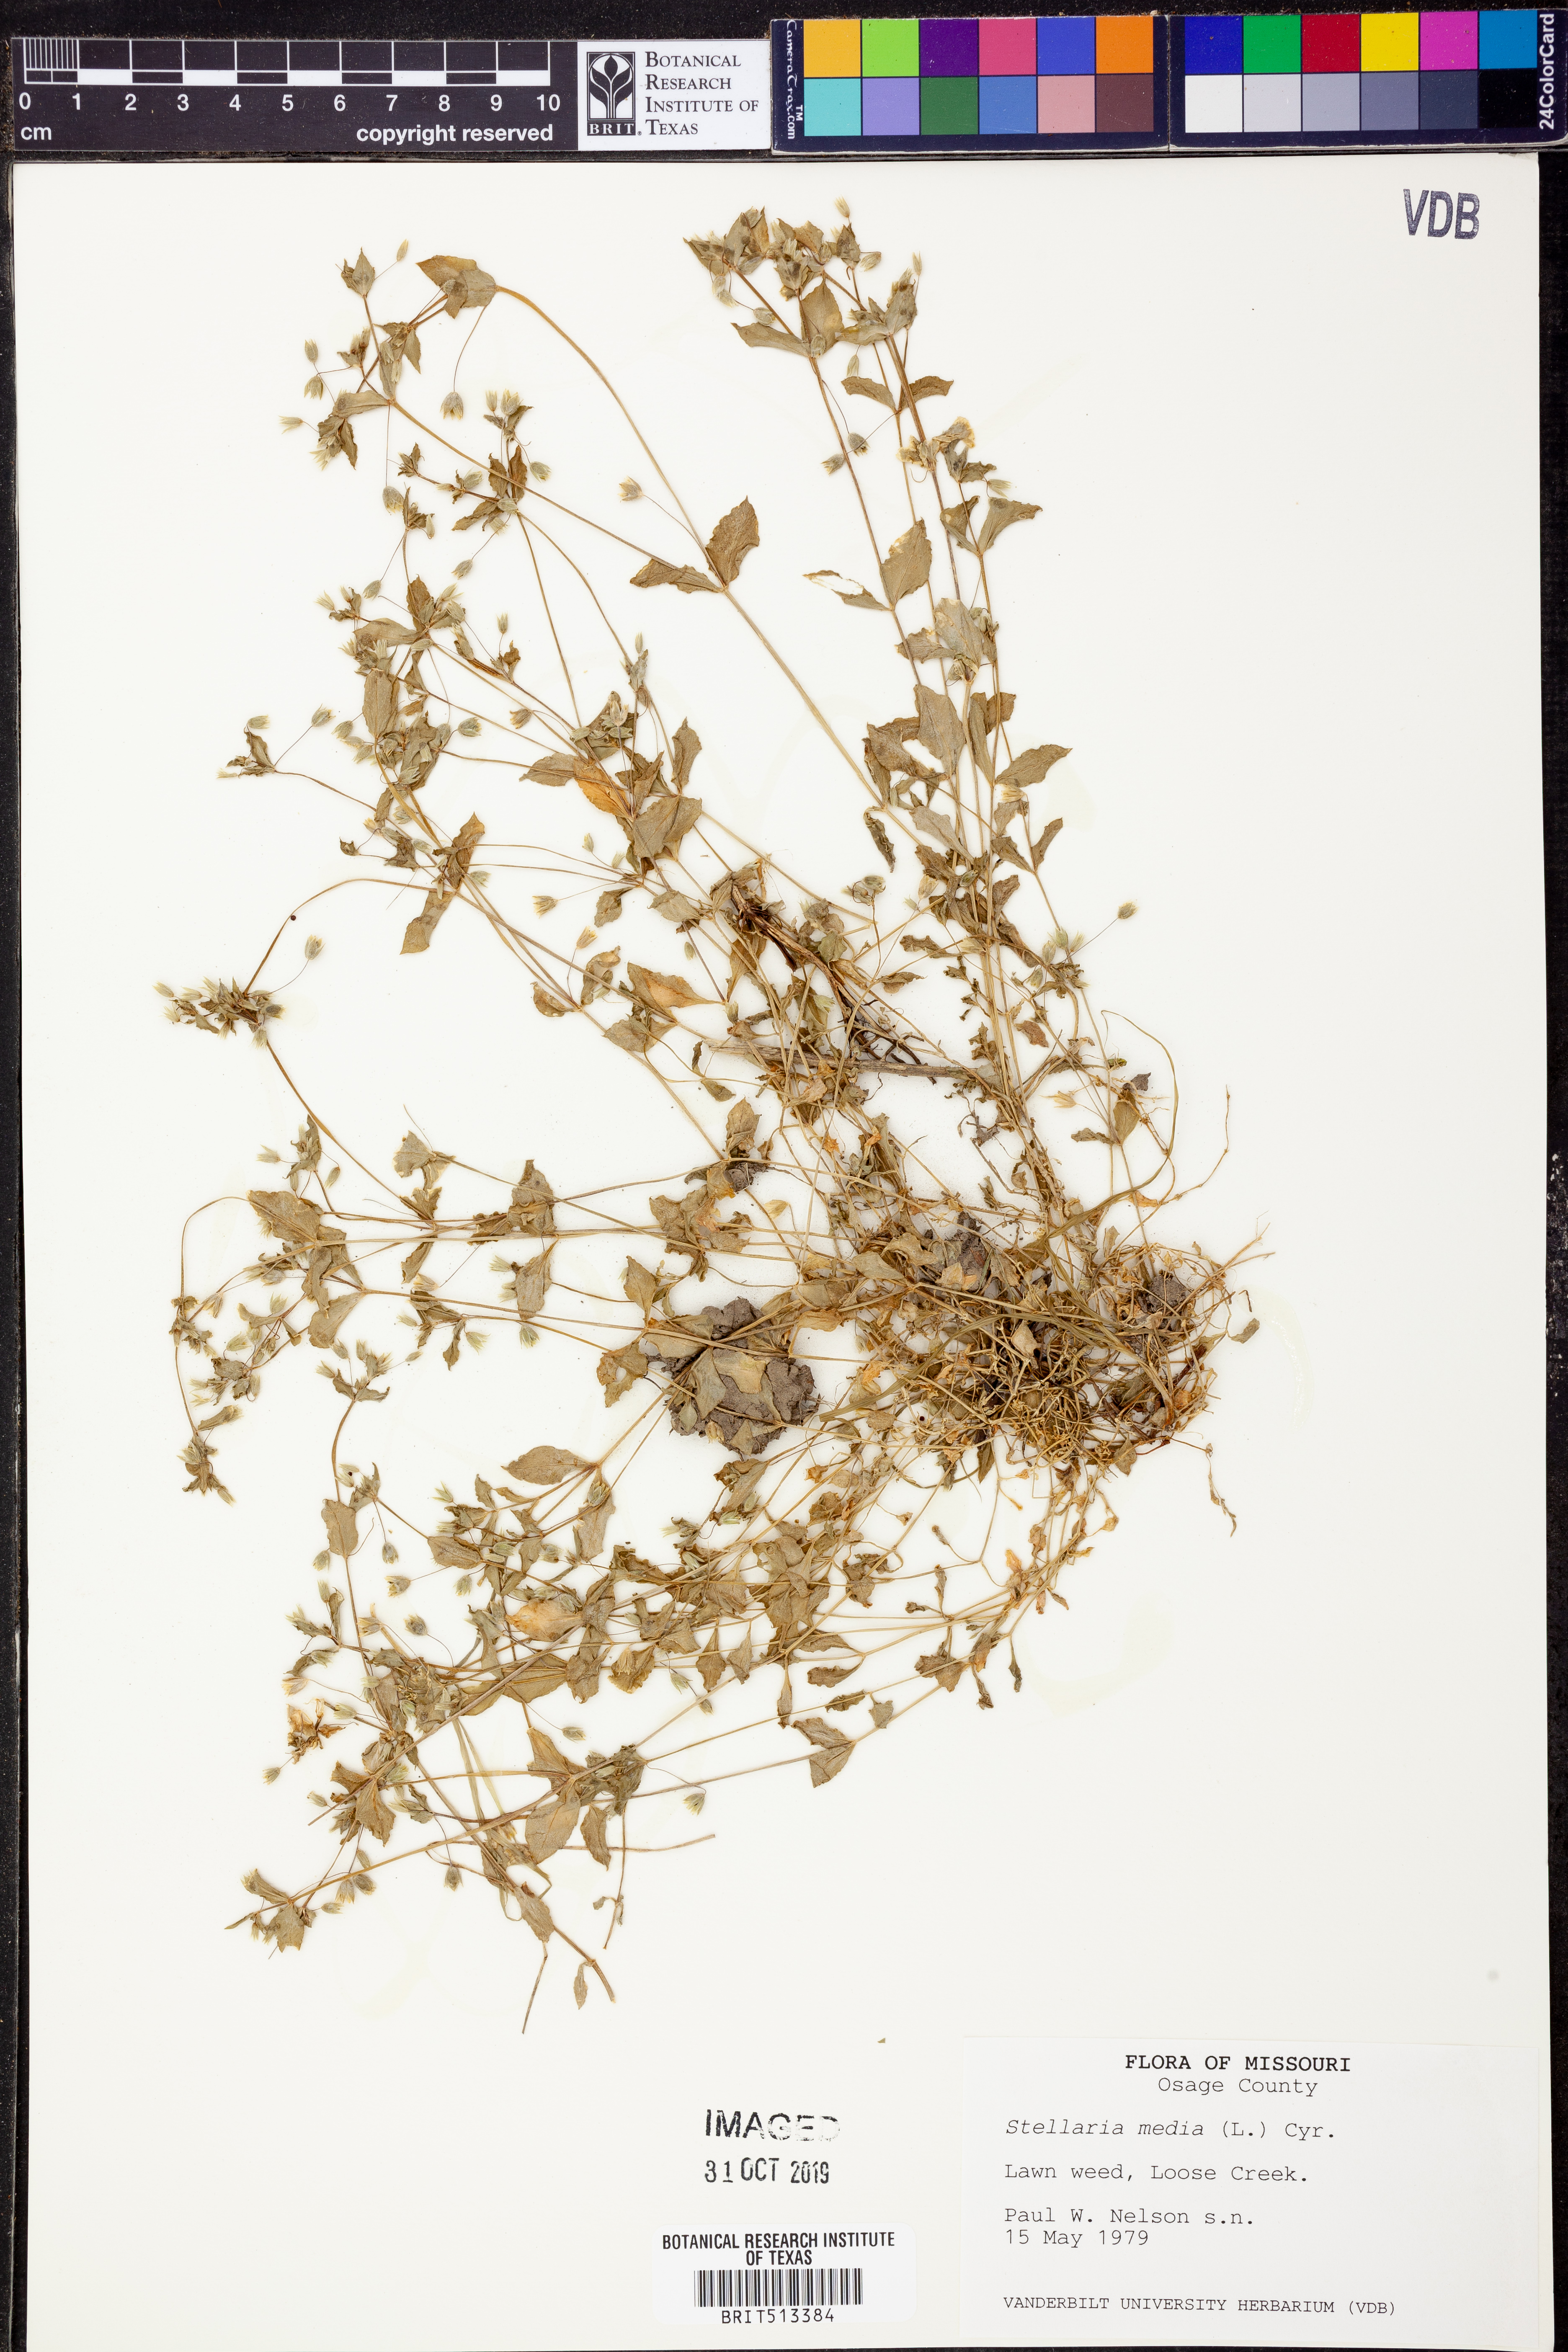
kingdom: Plantae
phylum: Tracheophyta
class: Magnoliopsida
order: Caryophyllales
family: Caryophyllaceae
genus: Stellaria
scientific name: Stellaria media
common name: Common chickweed
